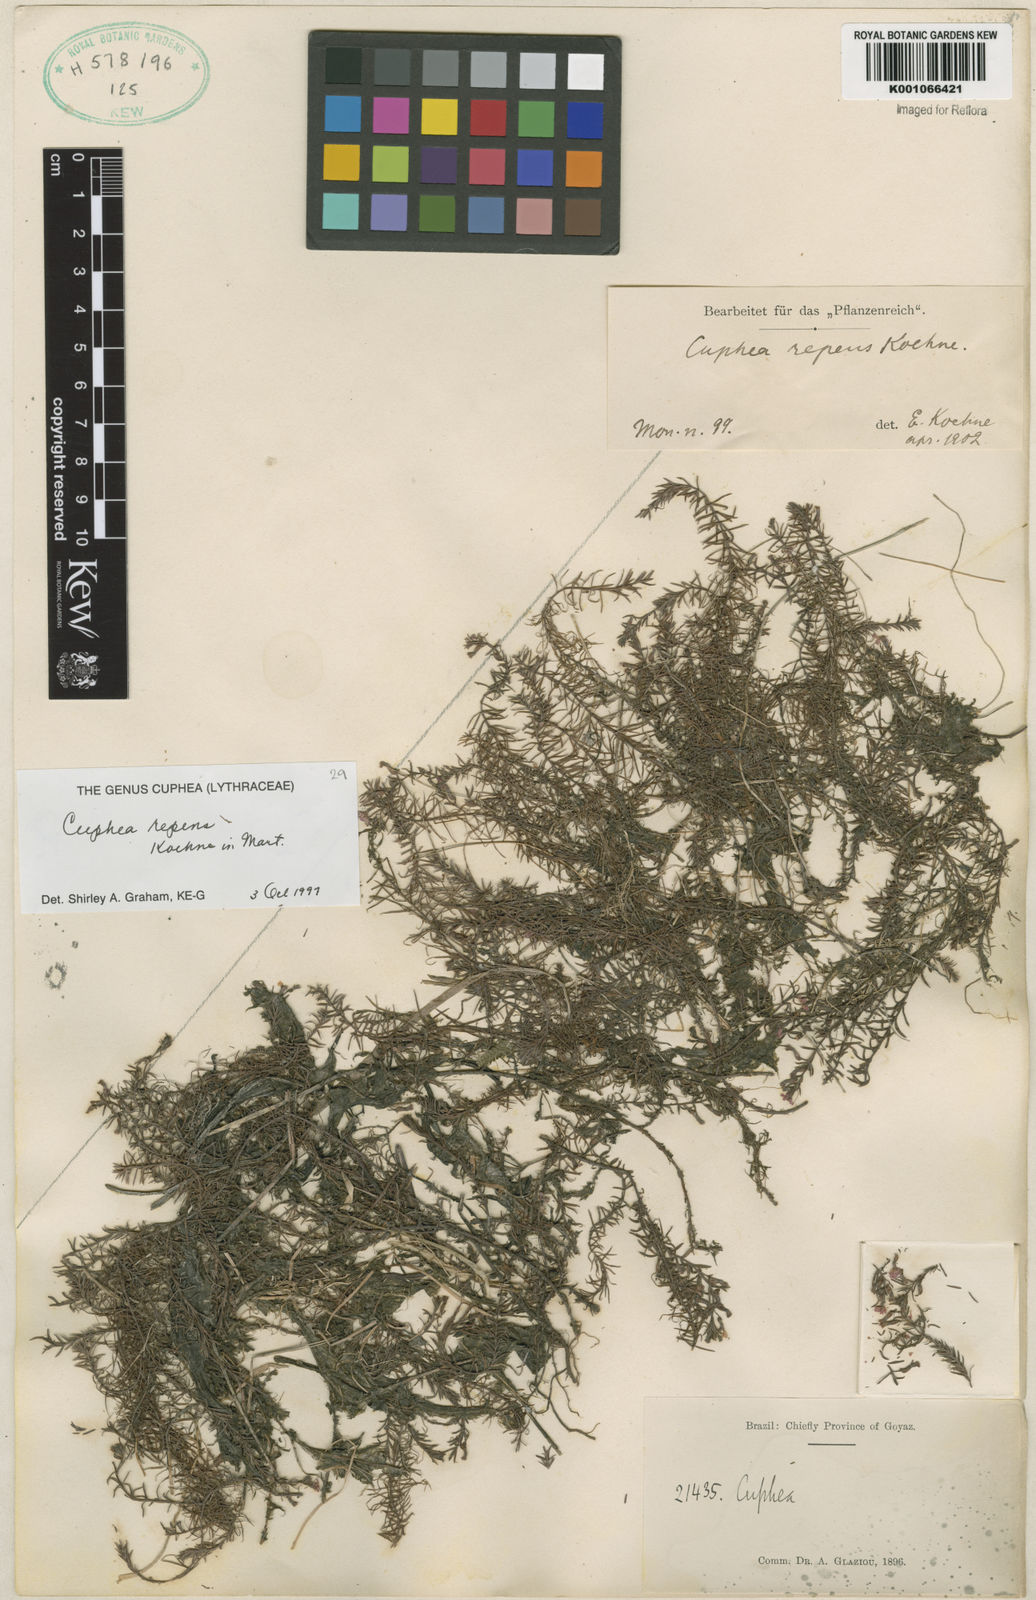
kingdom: Plantae
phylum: Tracheophyta
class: Magnoliopsida
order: Myrtales
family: Lythraceae
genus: Cuphea
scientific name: Cuphea repens
